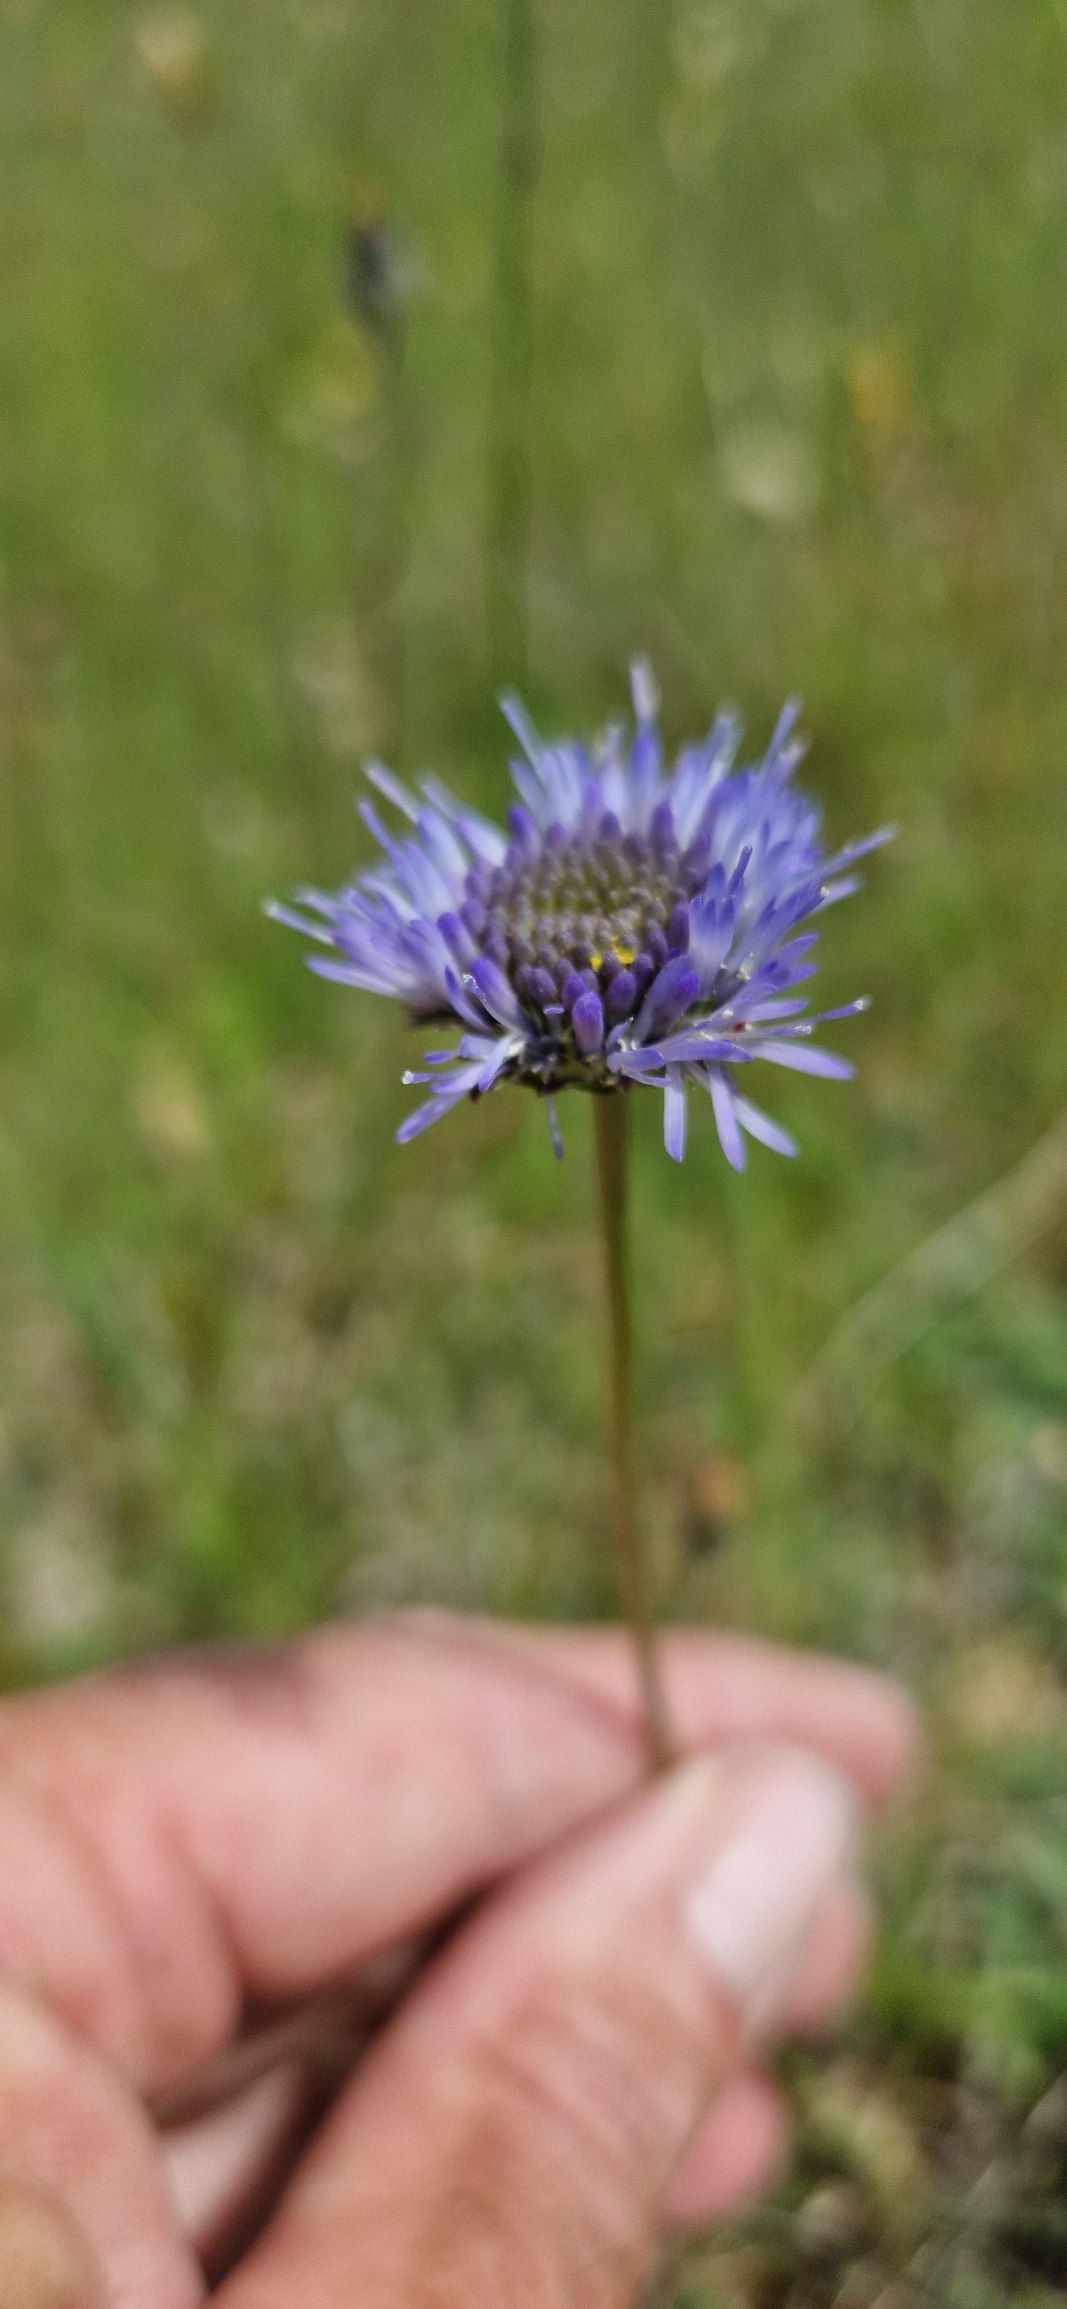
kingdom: Plantae
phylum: Tracheophyta
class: Magnoliopsida
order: Asterales
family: Campanulaceae
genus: Jasione
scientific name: Jasione montana
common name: Blåmunke
